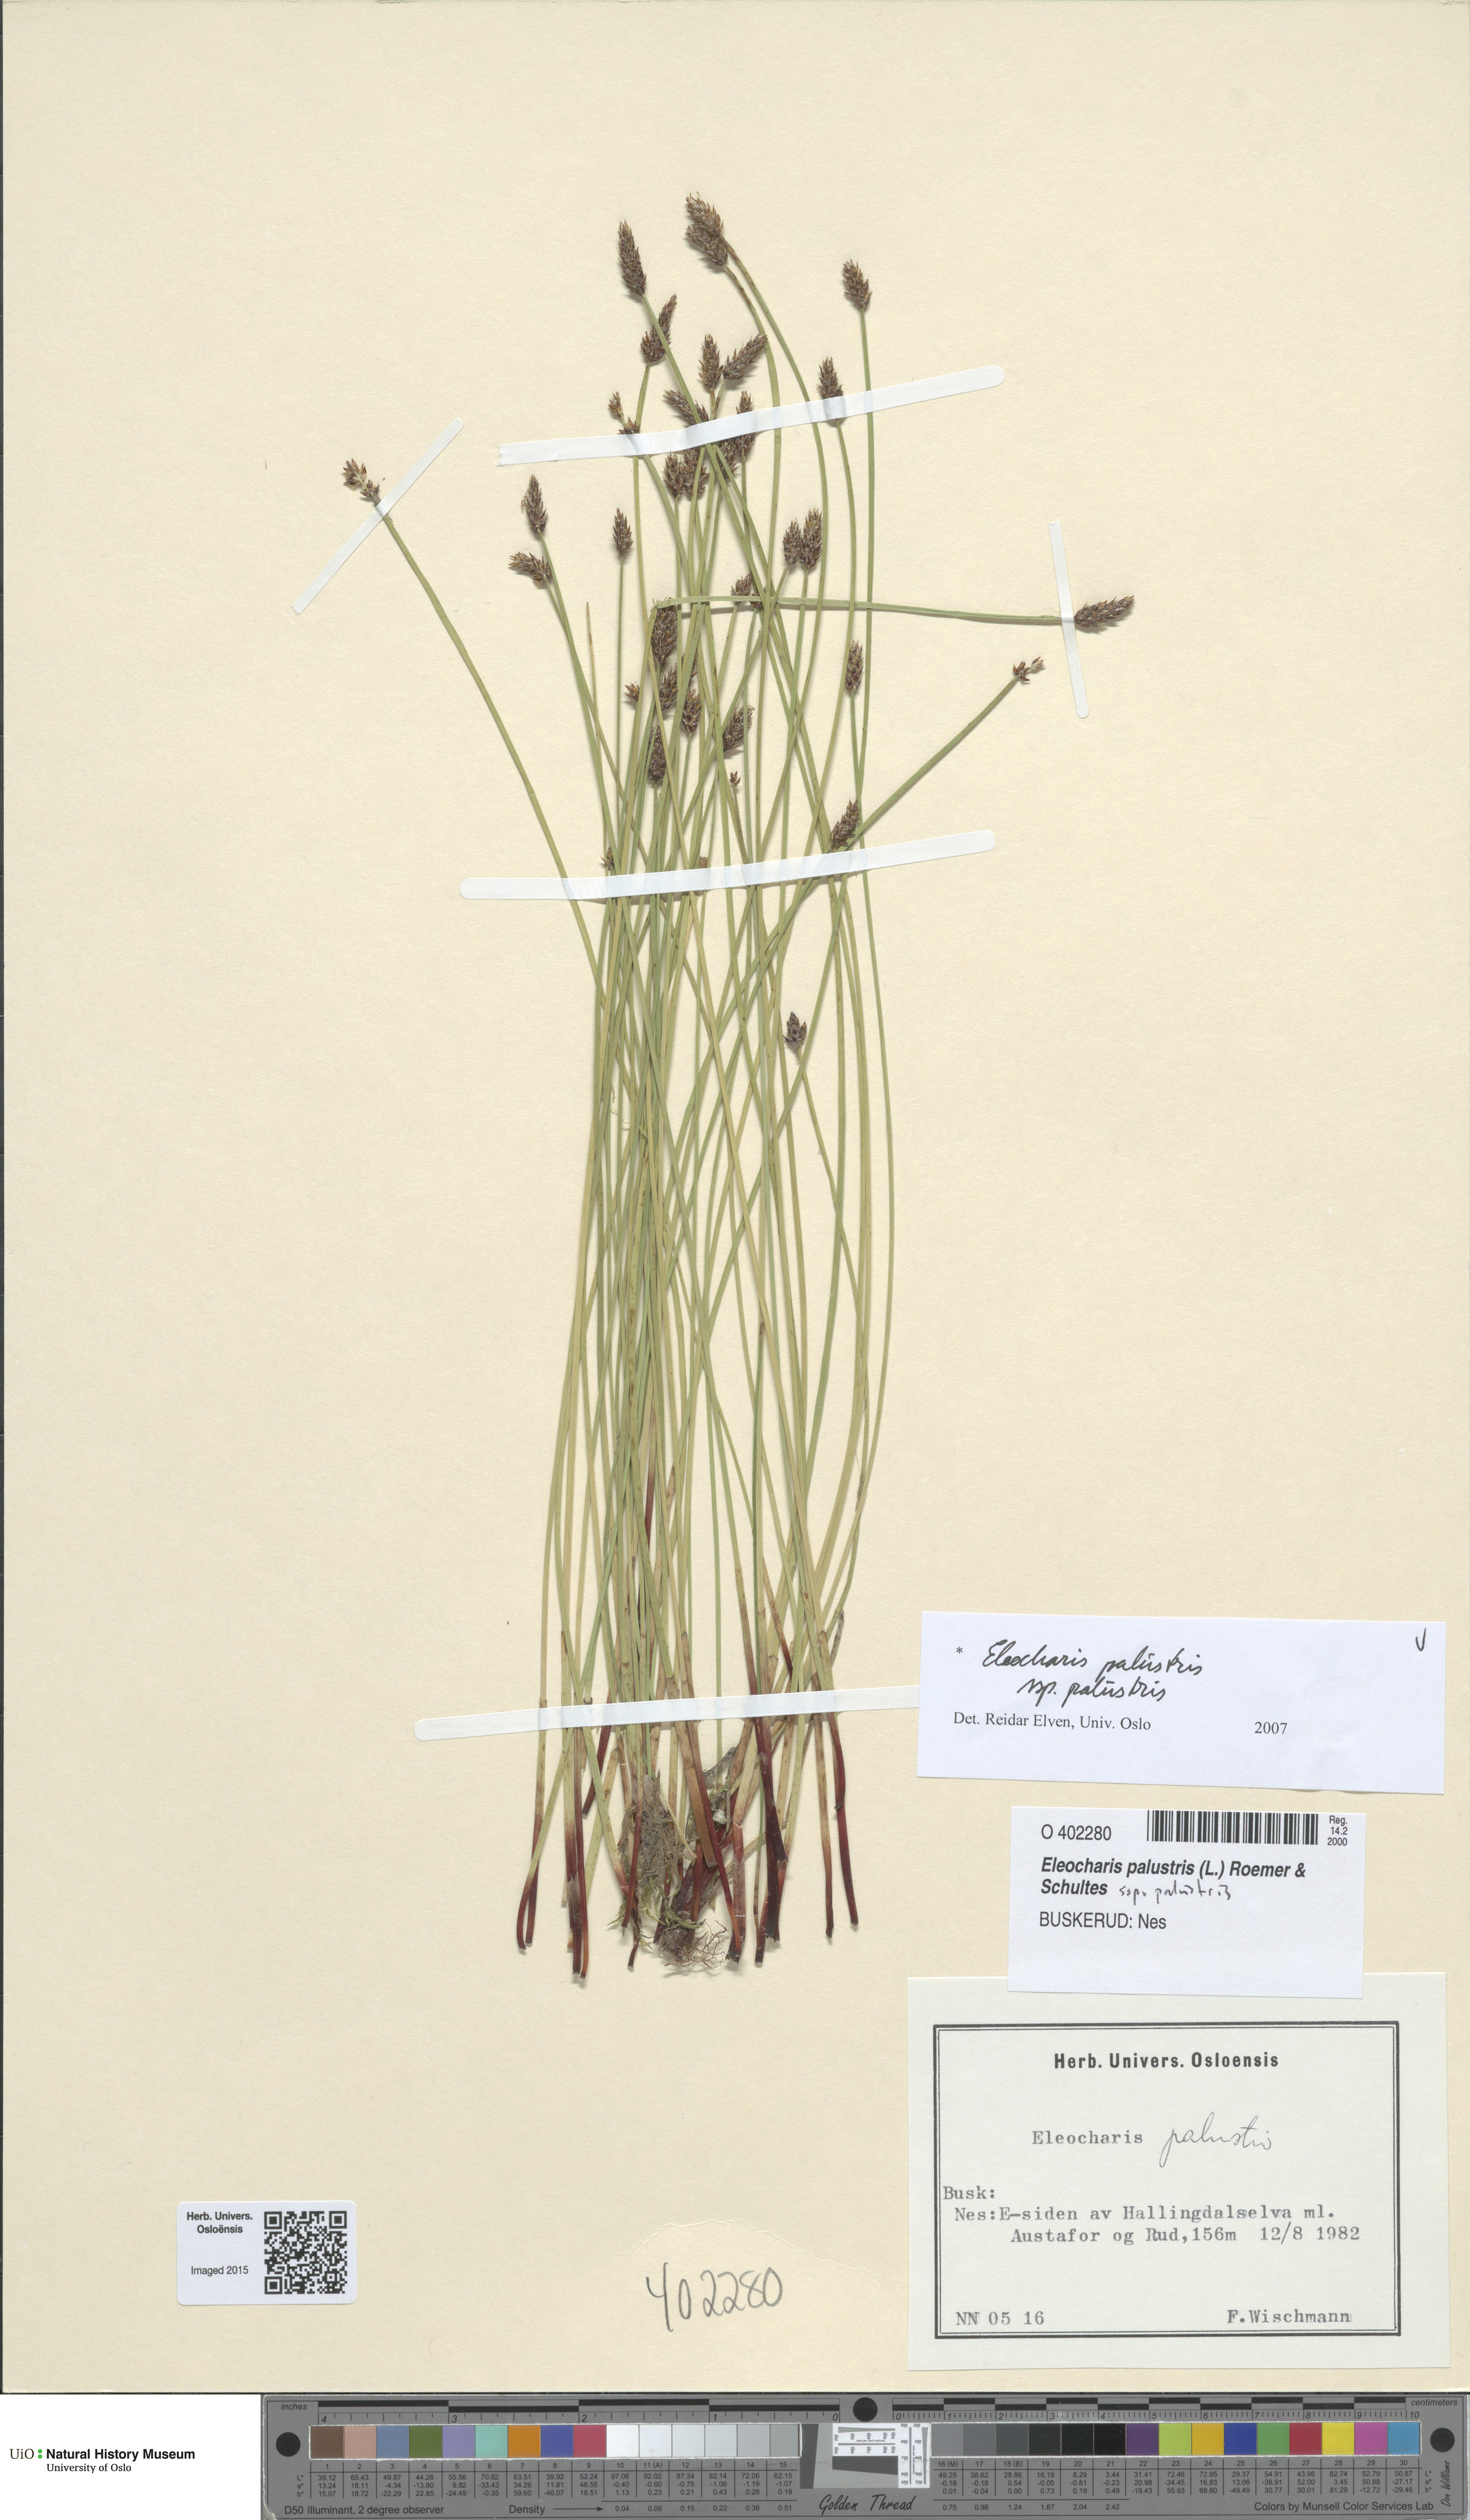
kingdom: Plantae
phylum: Tracheophyta
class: Liliopsida
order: Poales
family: Cyperaceae
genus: Eleocharis
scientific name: Eleocharis palustris
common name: Common spike-rush
